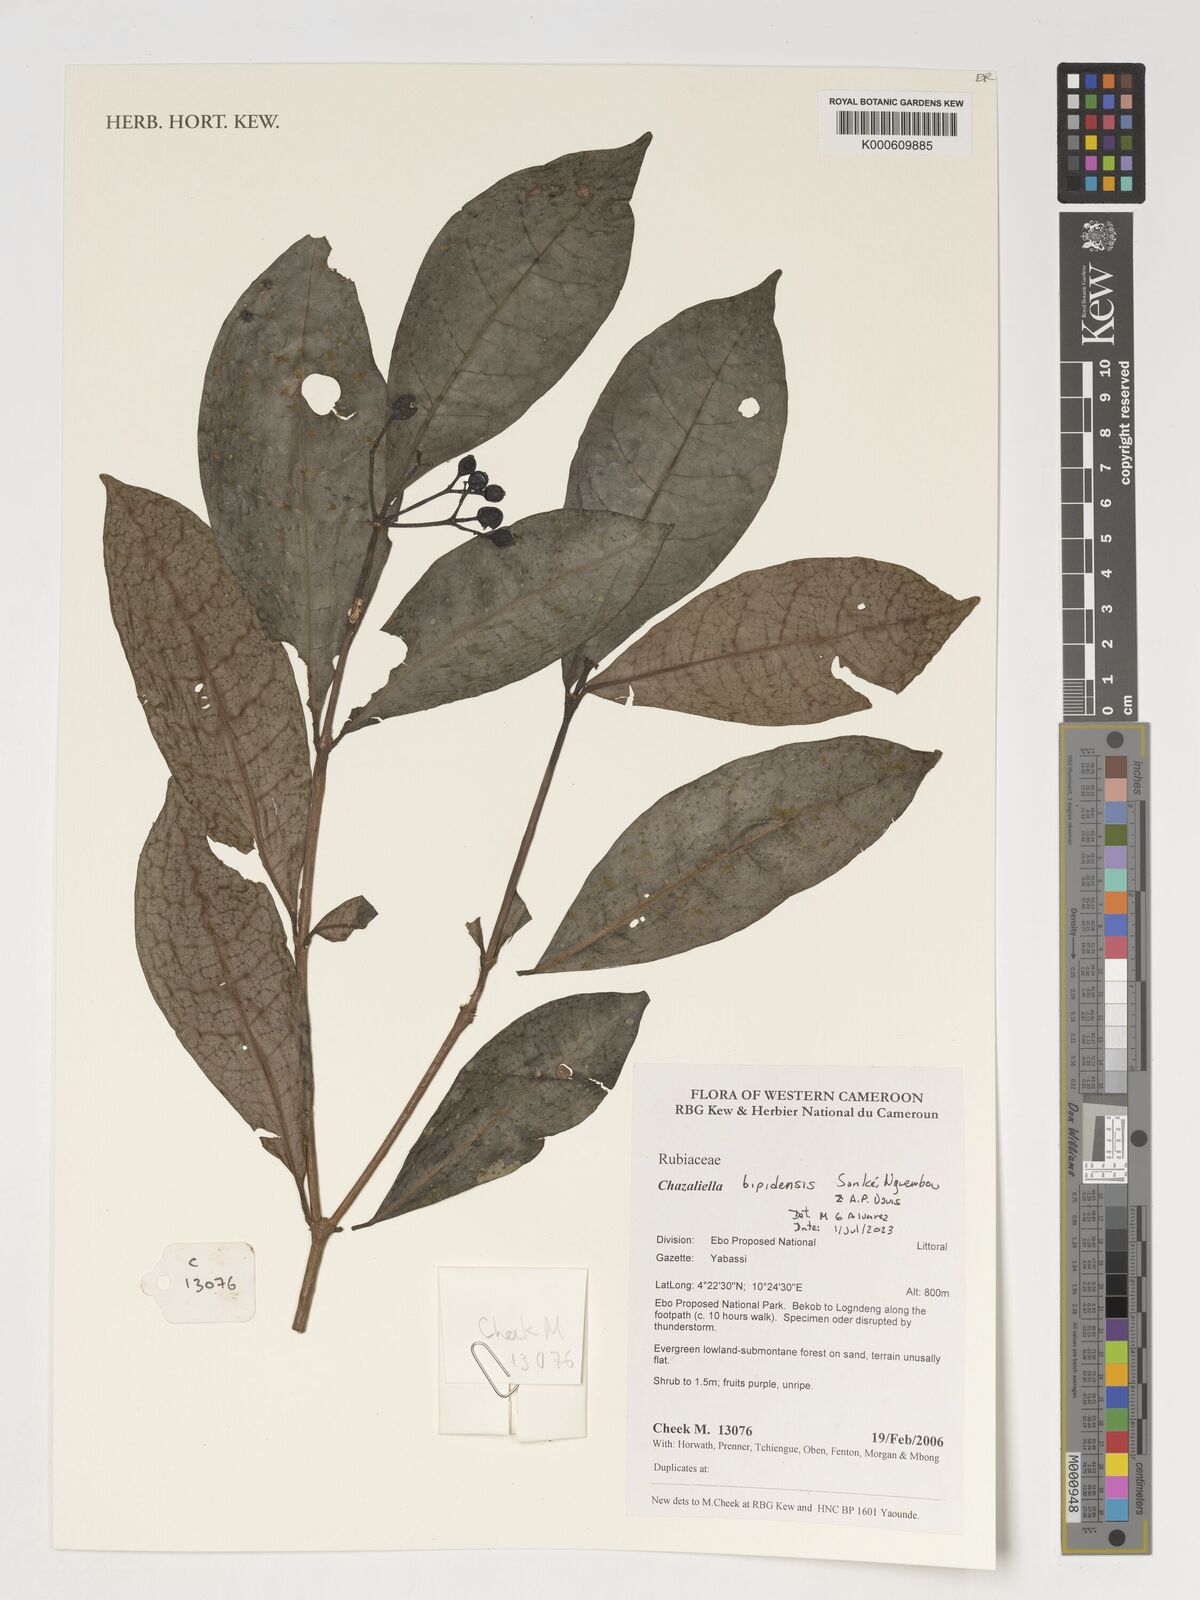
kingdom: Plantae
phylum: Tracheophyta
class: Magnoliopsida
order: Gentianales
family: Rubiaceae
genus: Eumachia
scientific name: Eumachia
